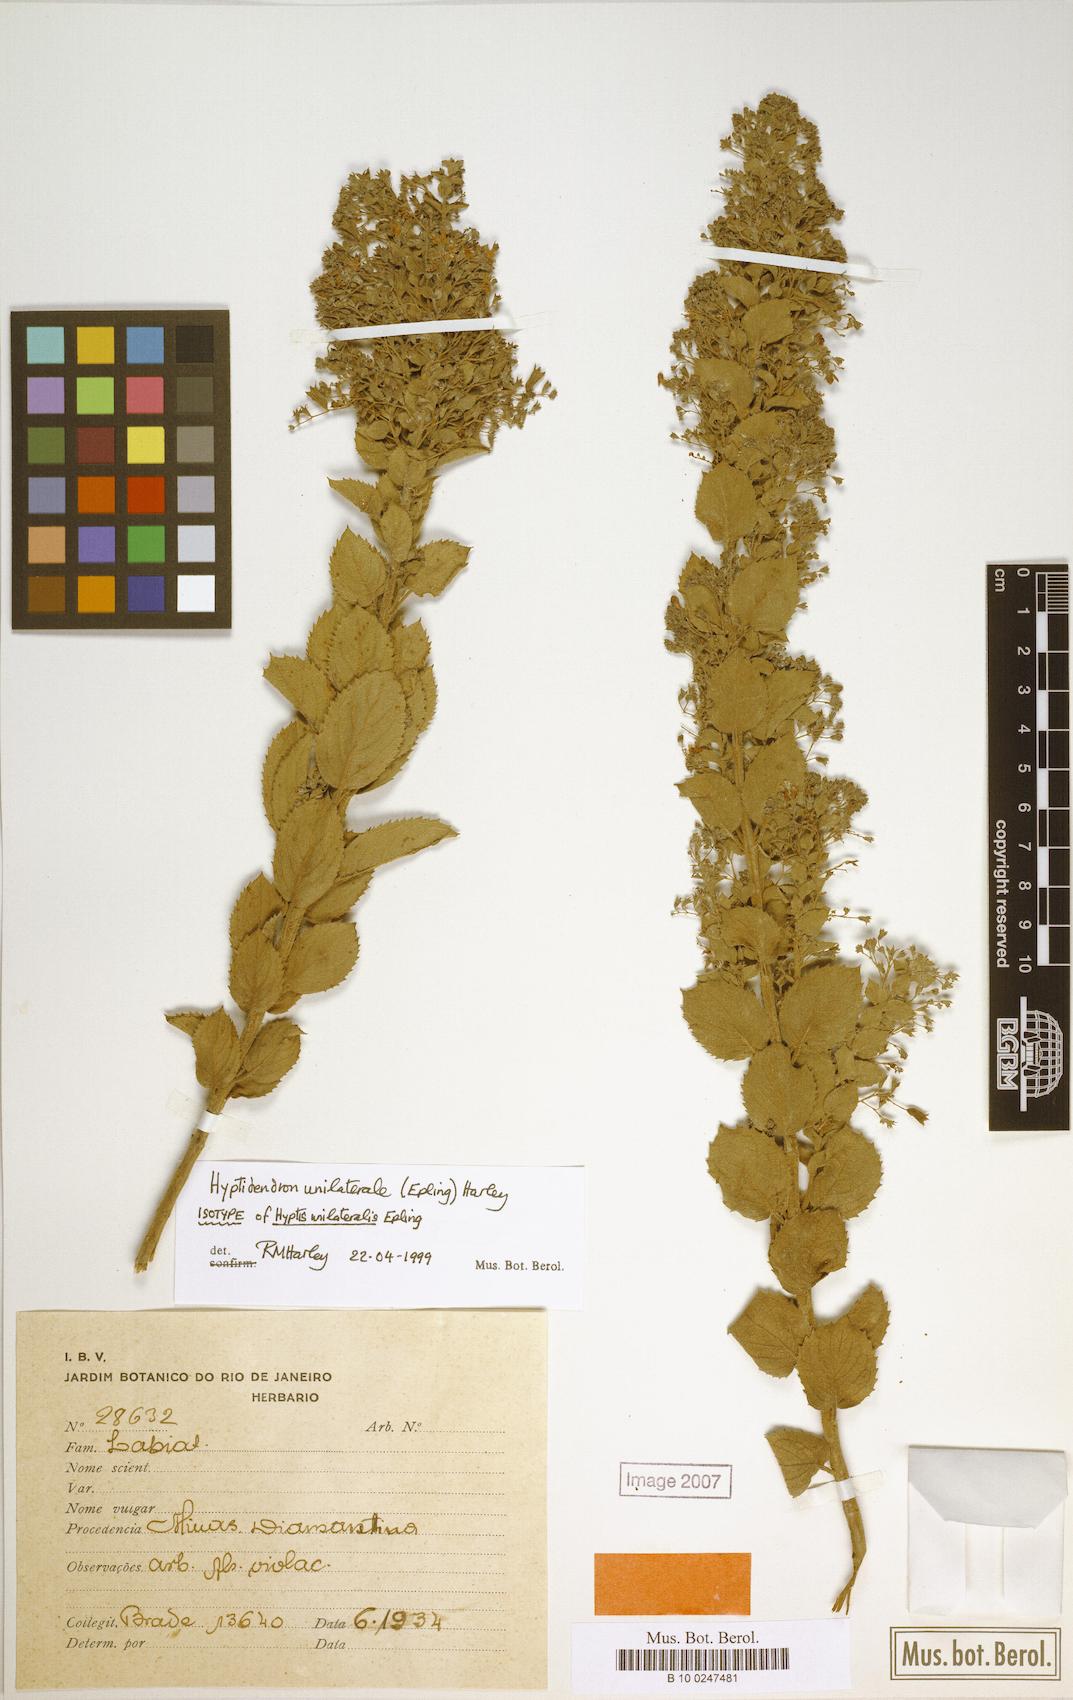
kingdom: Plantae
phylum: Tracheophyta
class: Magnoliopsida
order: Lamiales
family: Lamiaceae
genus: Hyptidendron
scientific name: Hyptidendron unilaterale
